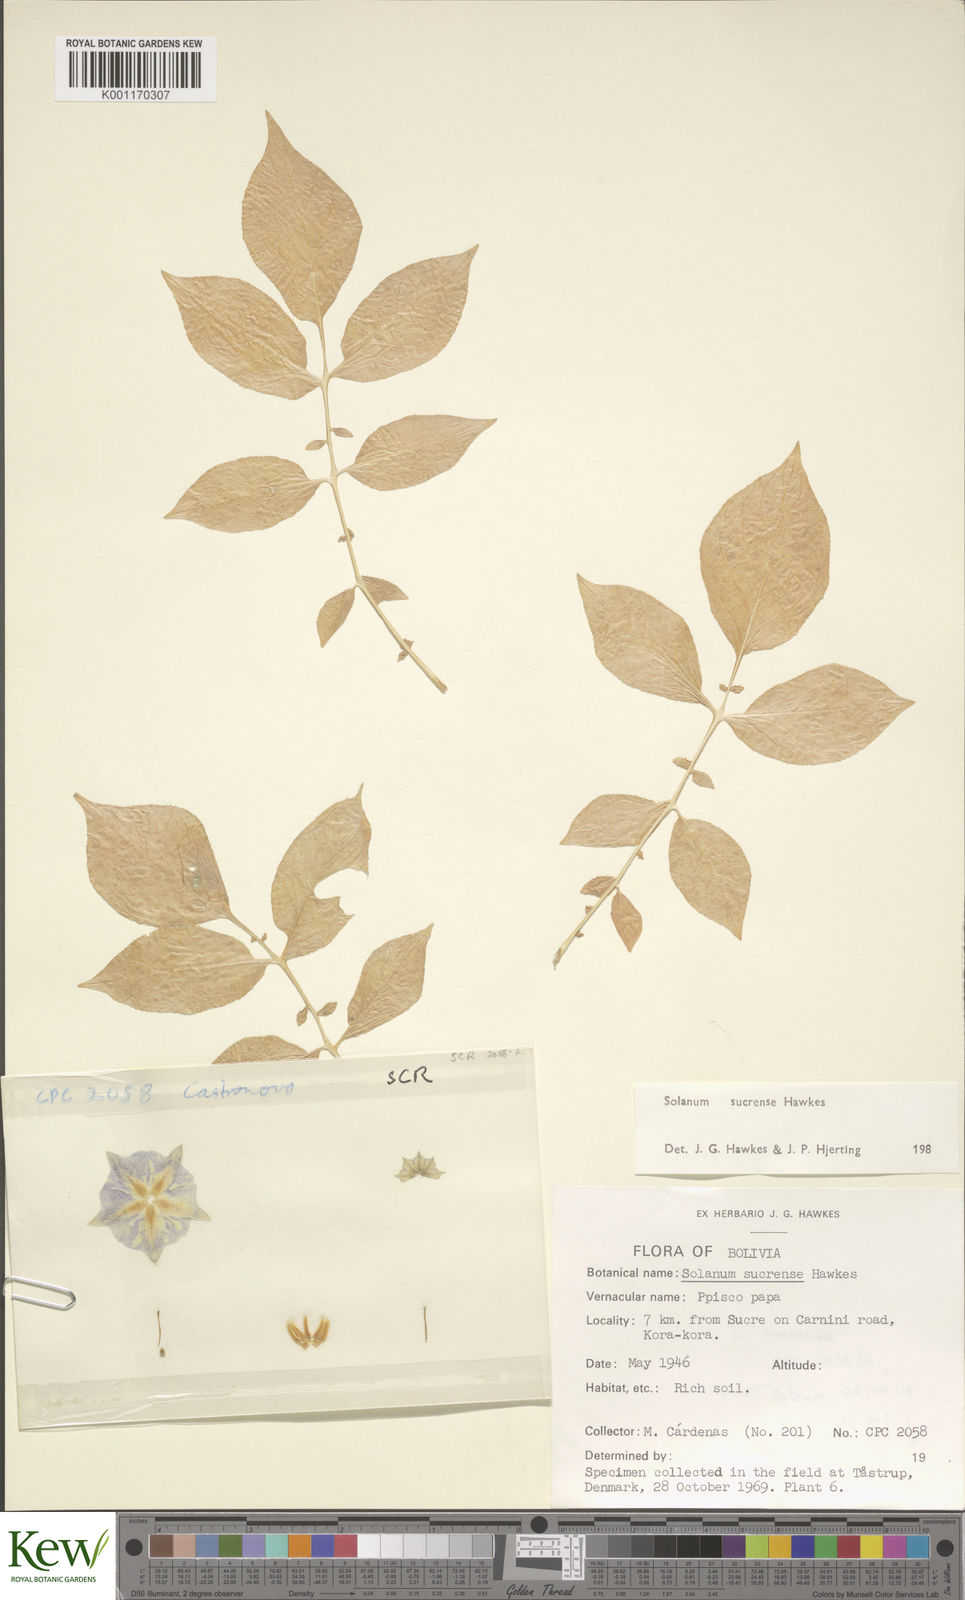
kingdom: Plantae
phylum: Tracheophyta
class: Magnoliopsida
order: Solanales
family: Solanaceae
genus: Solanum
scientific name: Solanum brevicaule
